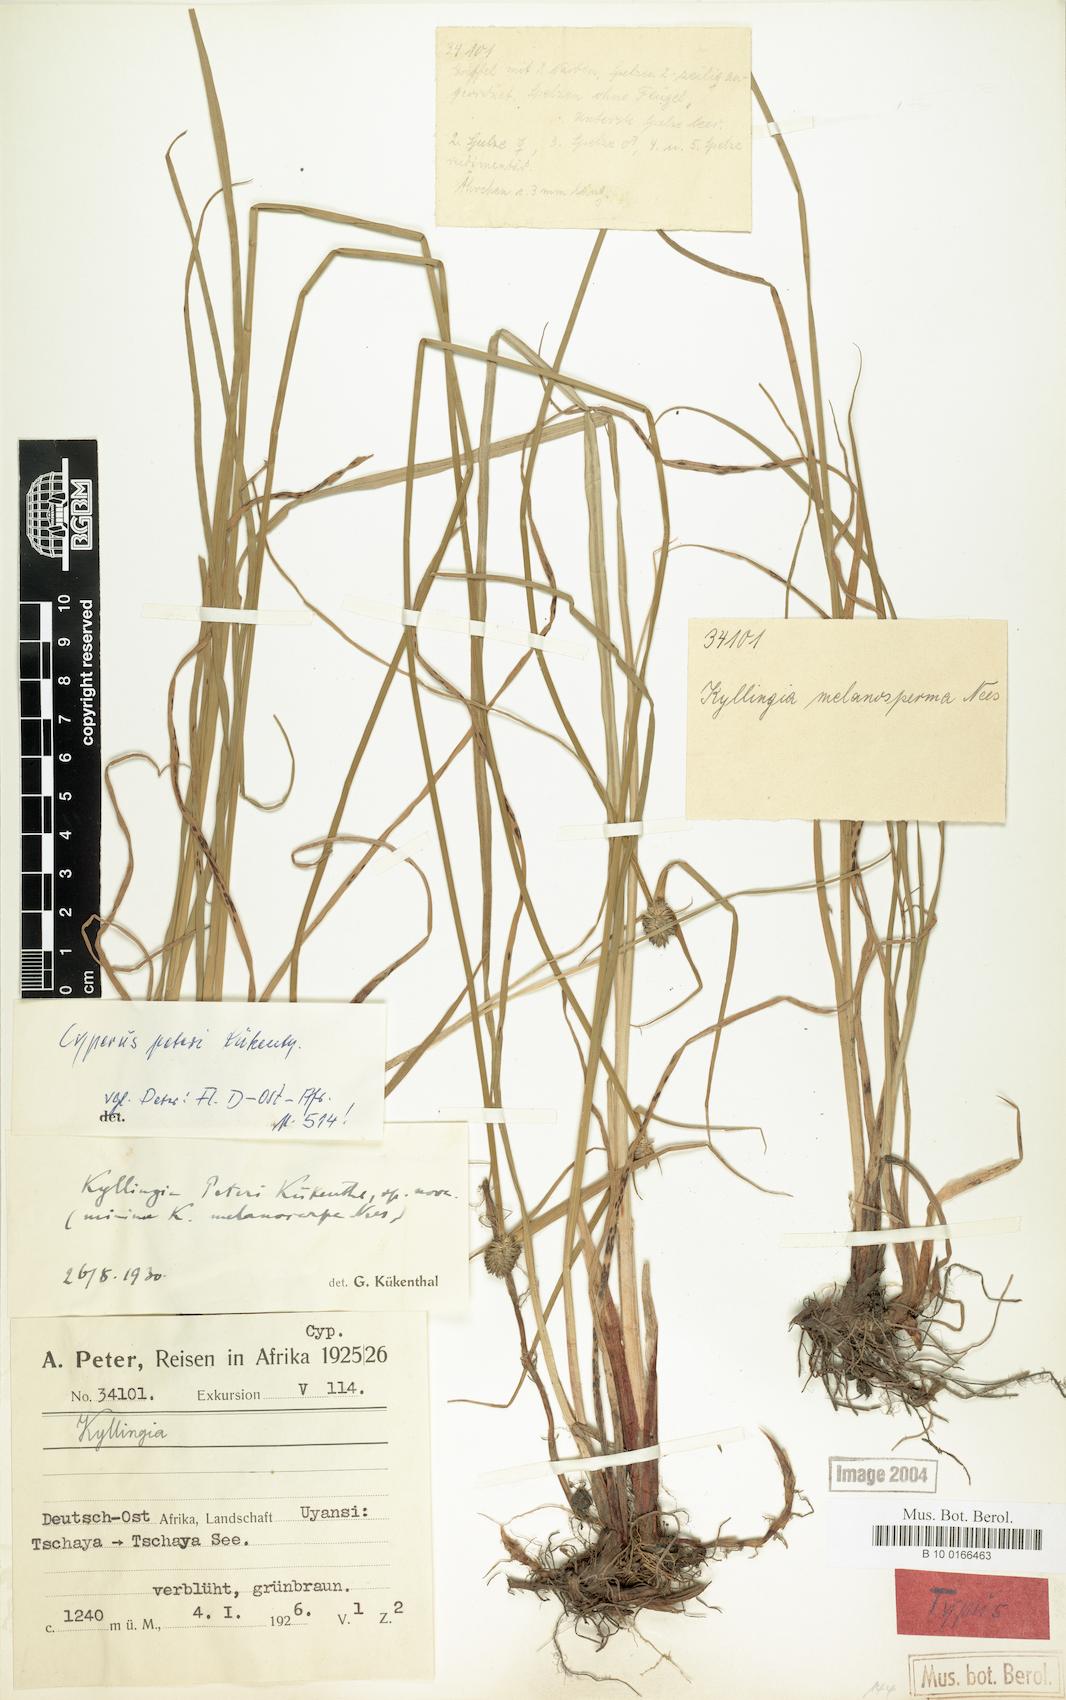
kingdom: Plantae
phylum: Tracheophyta
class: Liliopsida
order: Poales
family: Cyperaceae
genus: Cyperus
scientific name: Cyperus peteri
